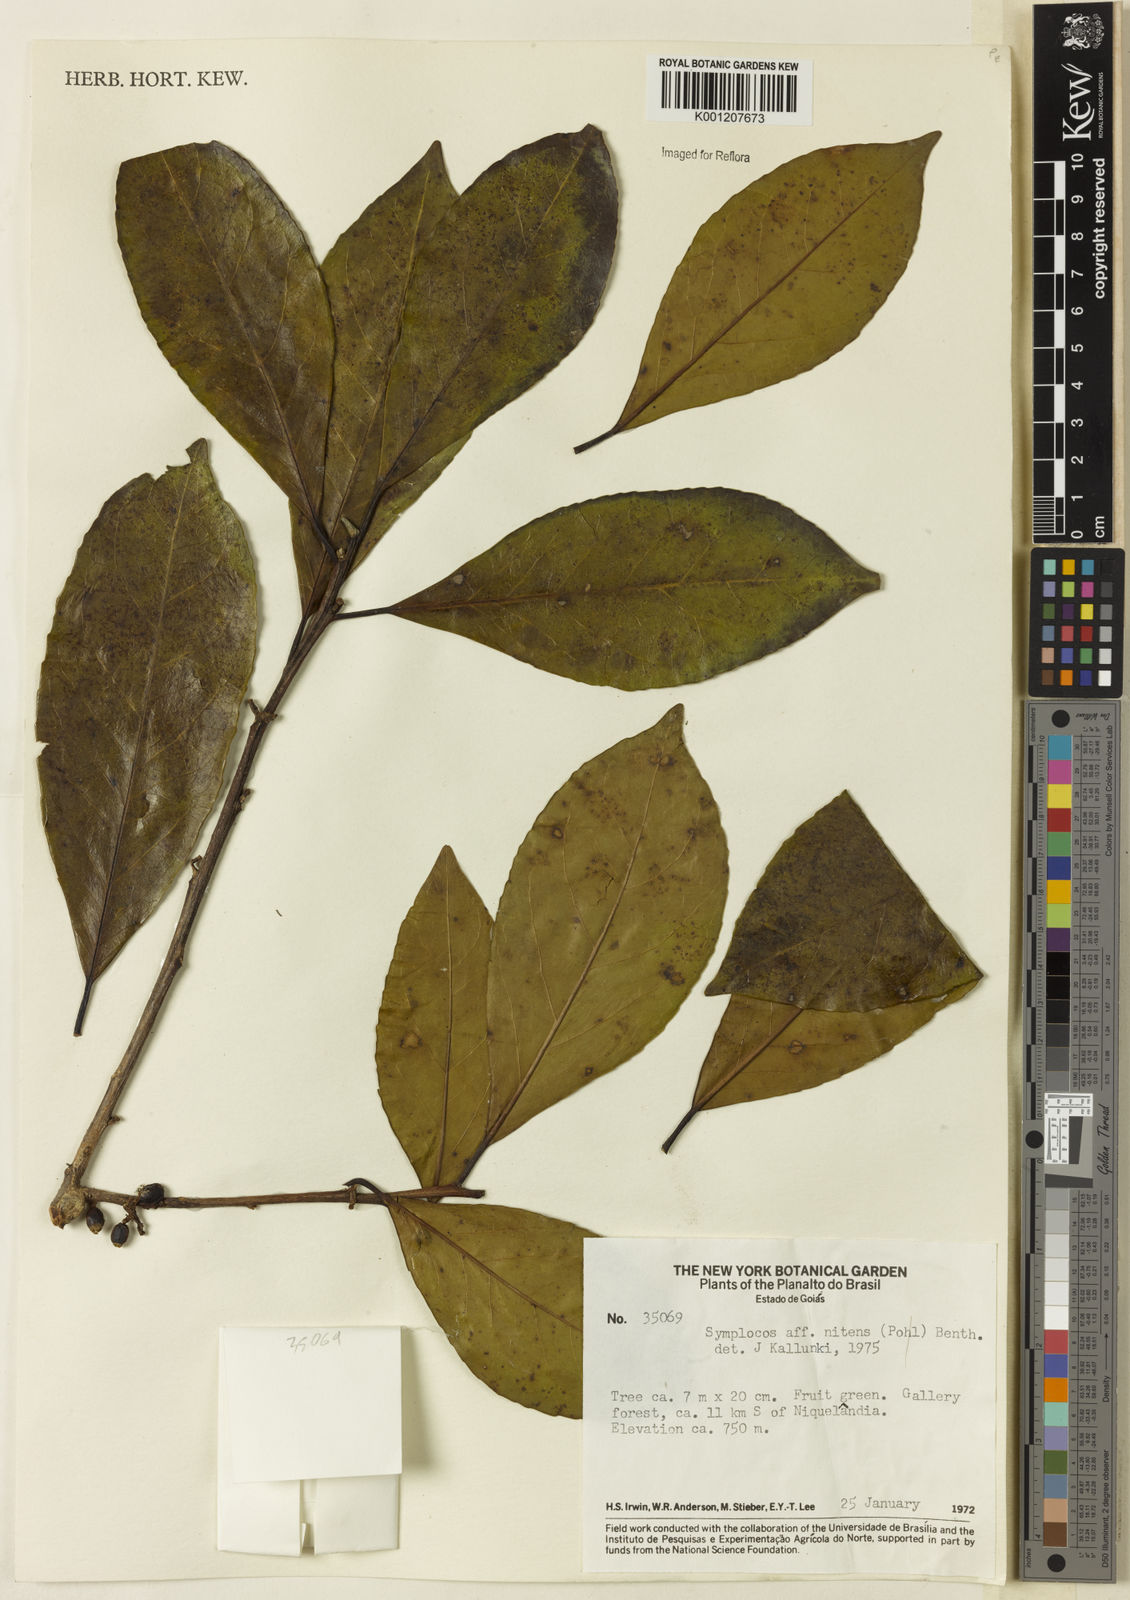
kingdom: Plantae
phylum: Tracheophyta
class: Magnoliopsida
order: Ericales
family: Symplocaceae
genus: Symplocos
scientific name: Symplocos nitens
